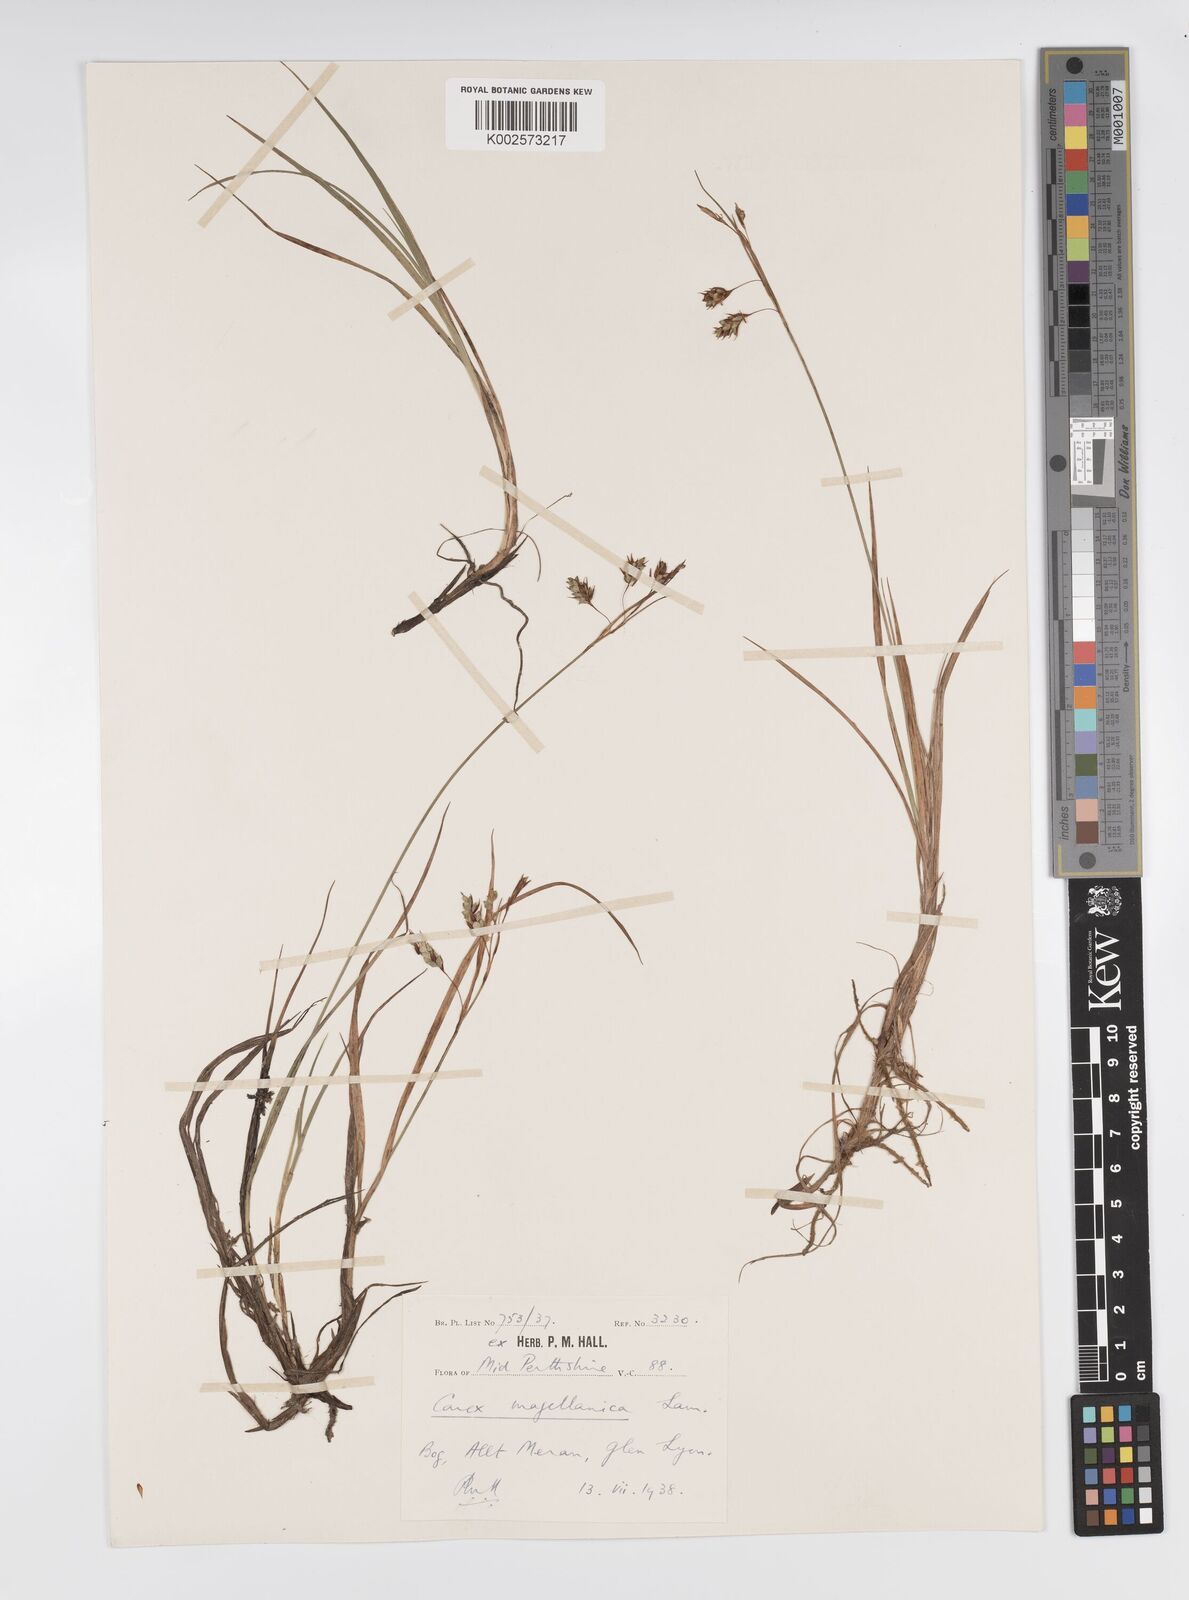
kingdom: Plantae
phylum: Tracheophyta
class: Liliopsida
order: Poales
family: Cyperaceae
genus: Carex
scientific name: Carex magellanica
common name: Bog sedge
